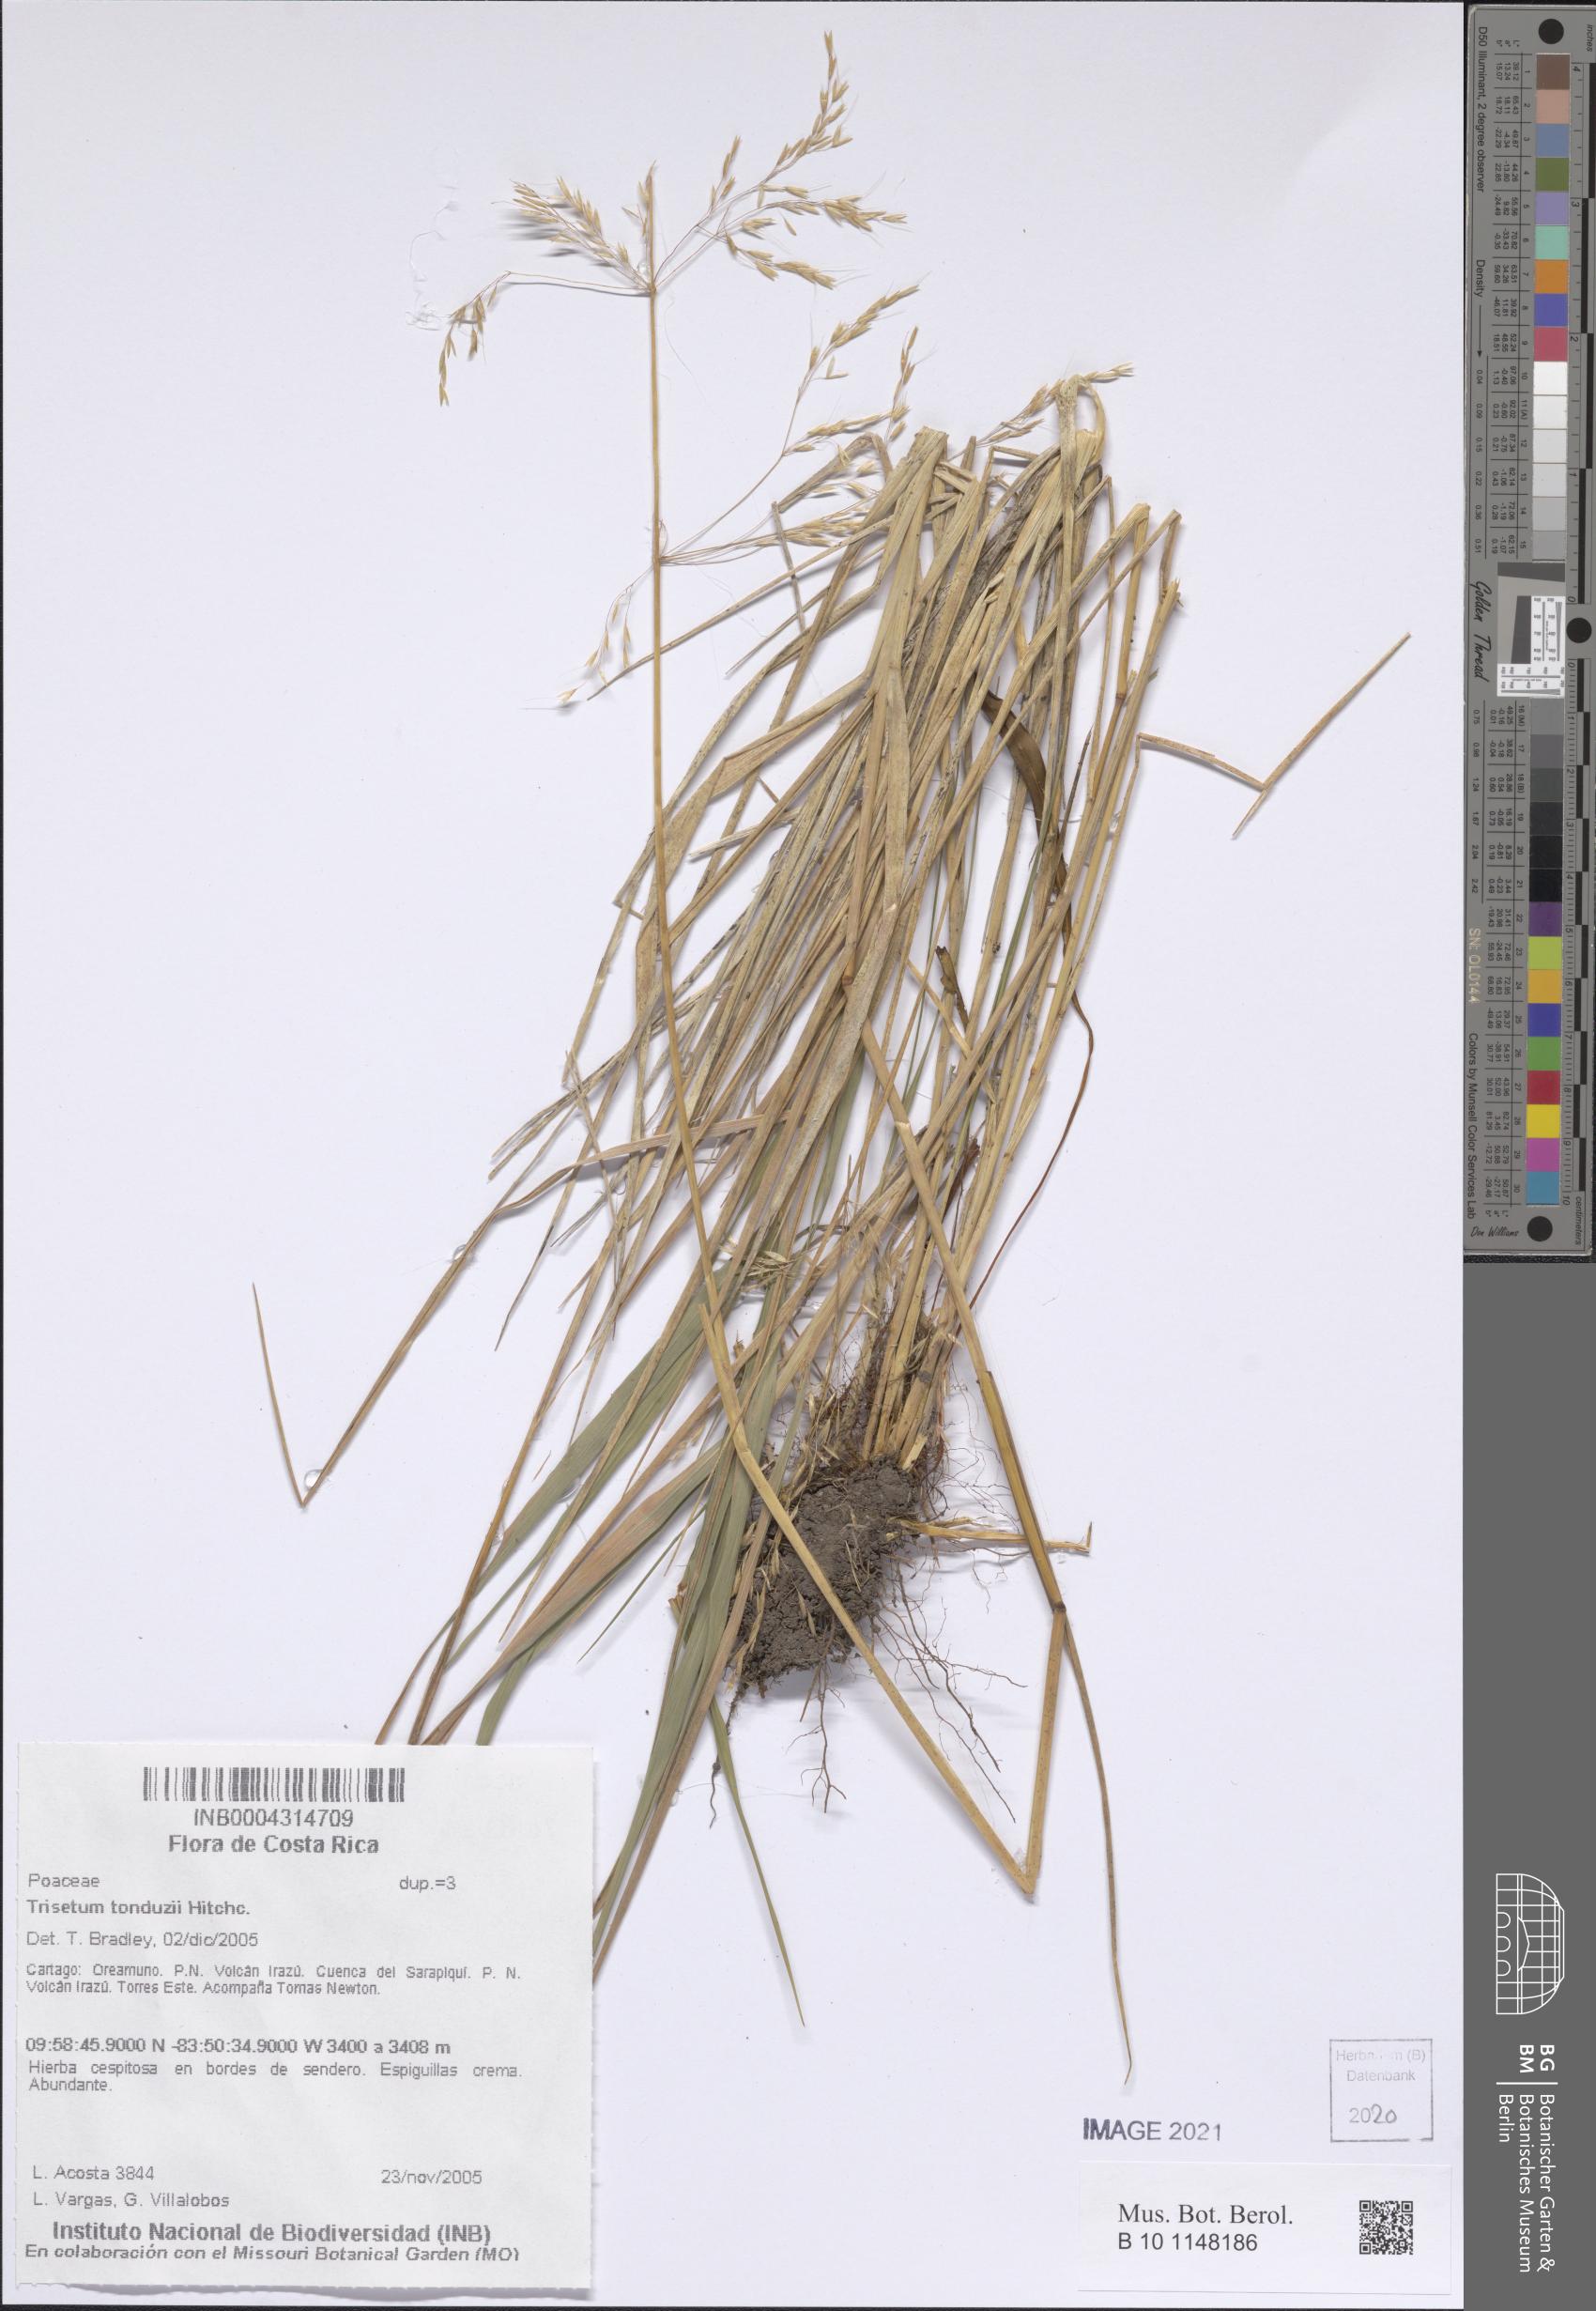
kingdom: Plantae
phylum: Tracheophyta
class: Liliopsida
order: Poales
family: Poaceae
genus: Peyritschia
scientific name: Peyritschia tonduzii
